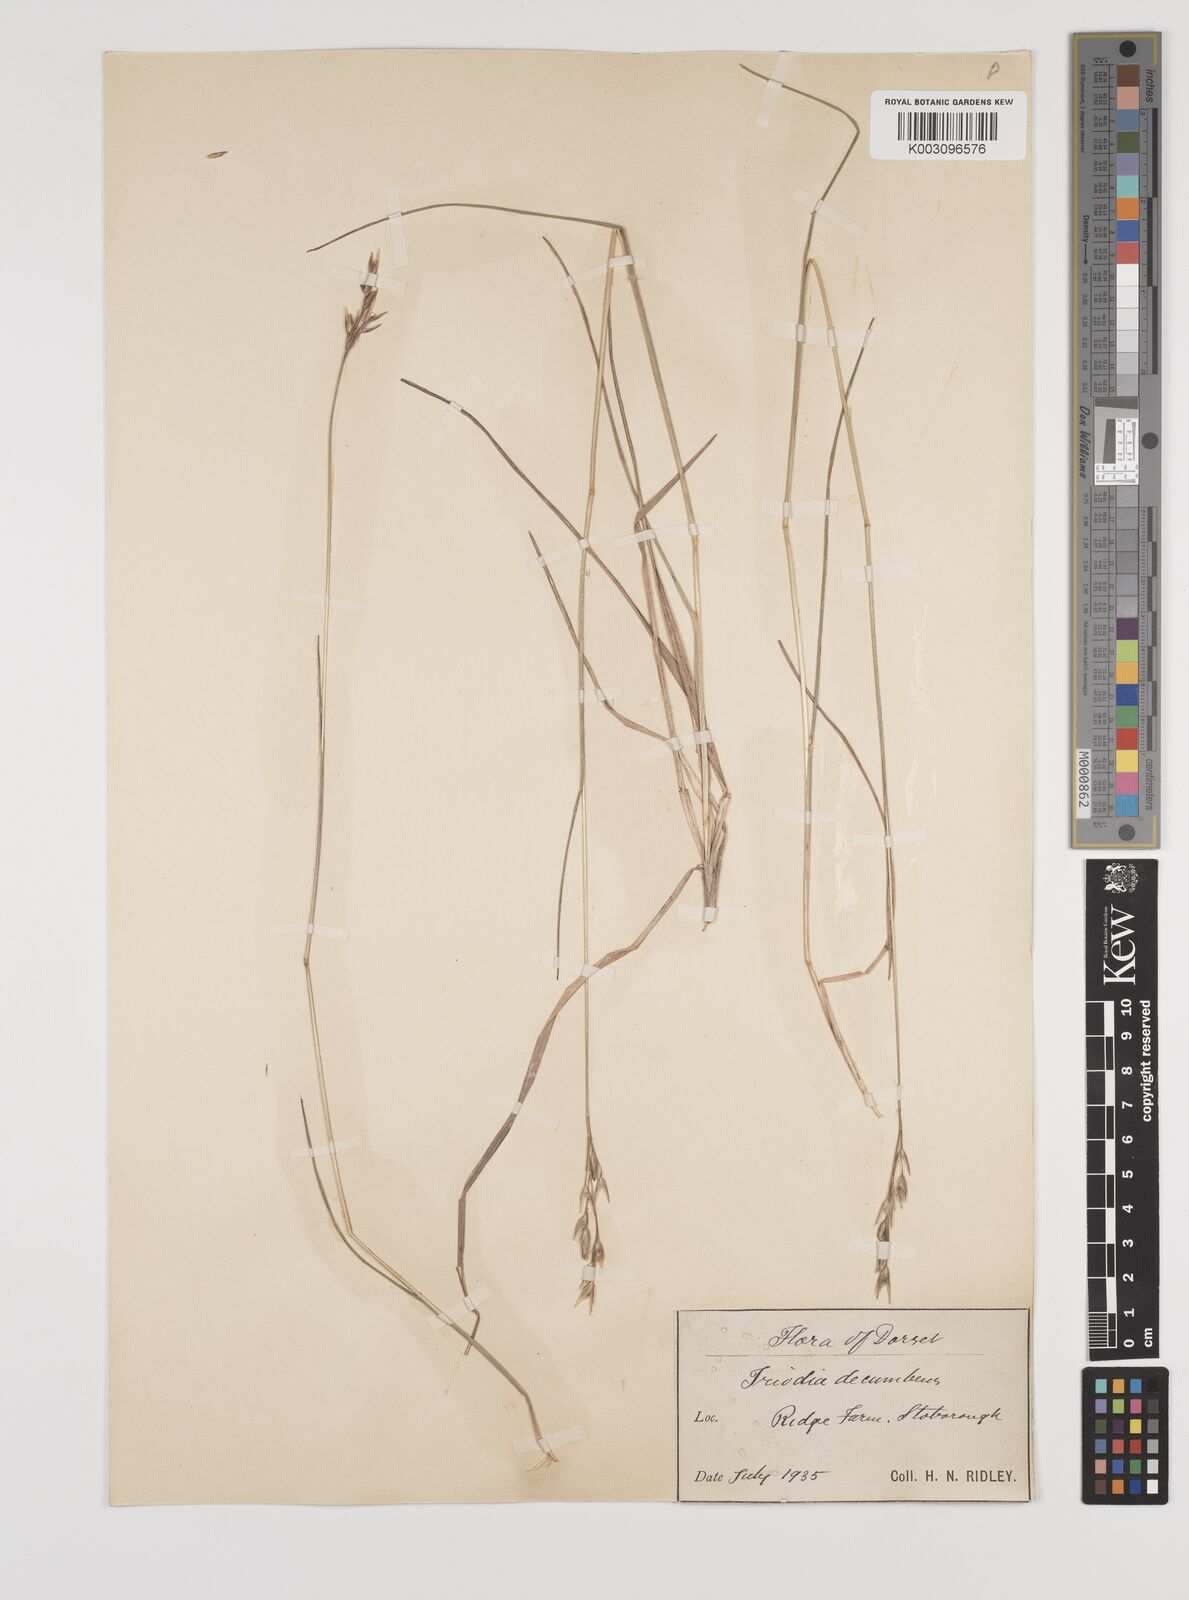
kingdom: Plantae
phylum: Tracheophyta
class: Liliopsida
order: Poales
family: Poaceae
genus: Danthonia
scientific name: Danthonia decumbens
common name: Common heathgrass
